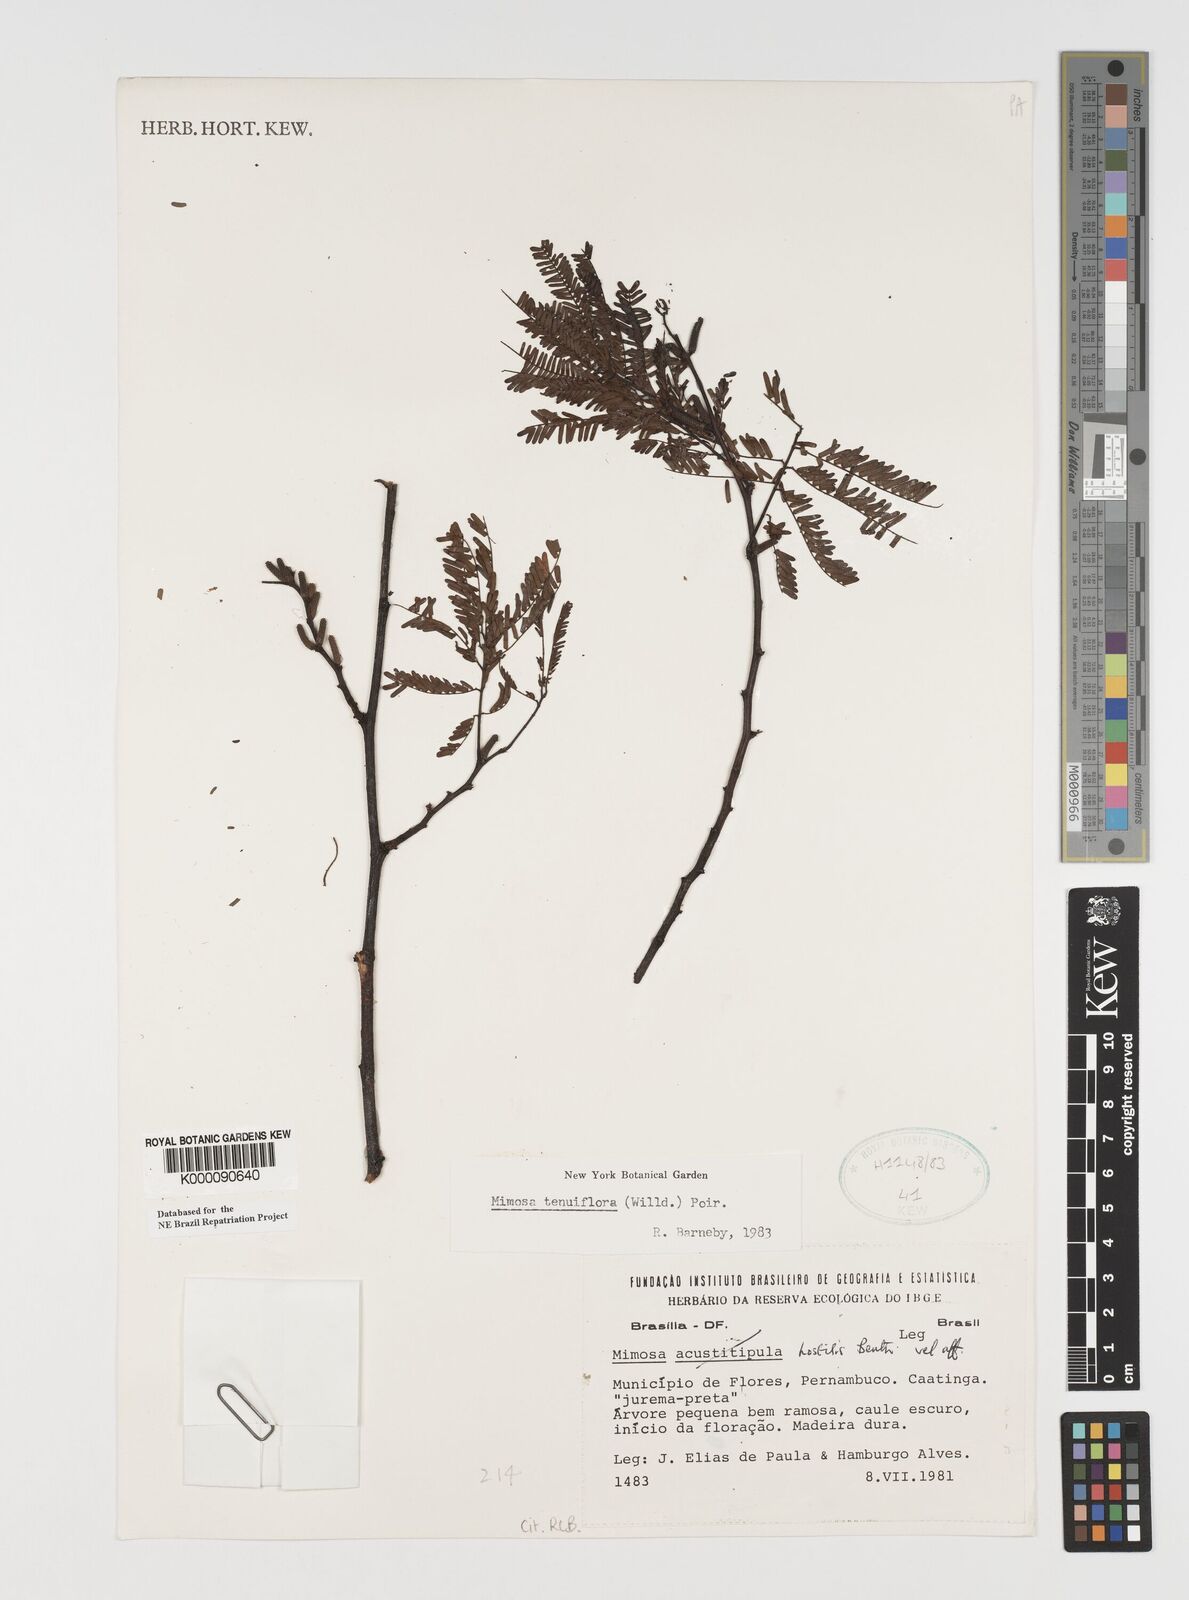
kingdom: Plantae
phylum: Tracheophyta
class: Magnoliopsida
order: Fabales
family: Fabaceae
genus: Mimosa
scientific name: Mimosa tenuiflora
